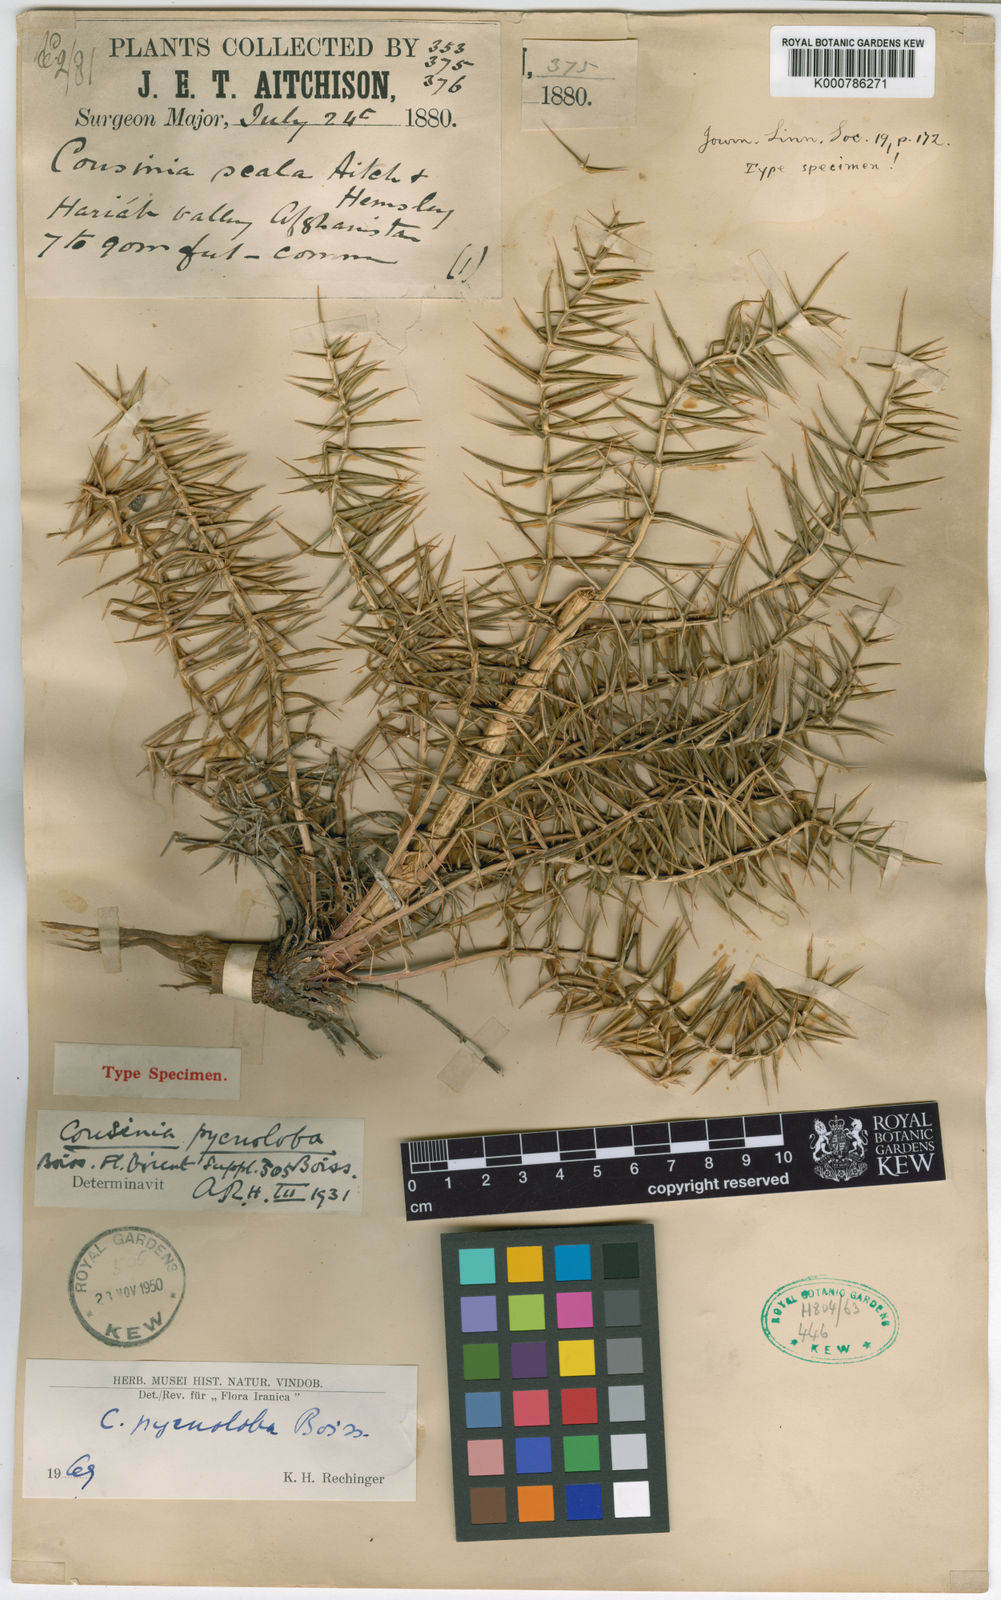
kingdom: Plantae
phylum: Tracheophyta
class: Magnoliopsida
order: Asterales
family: Asteraceae
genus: Cousinia
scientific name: Cousinia pycnoloba
